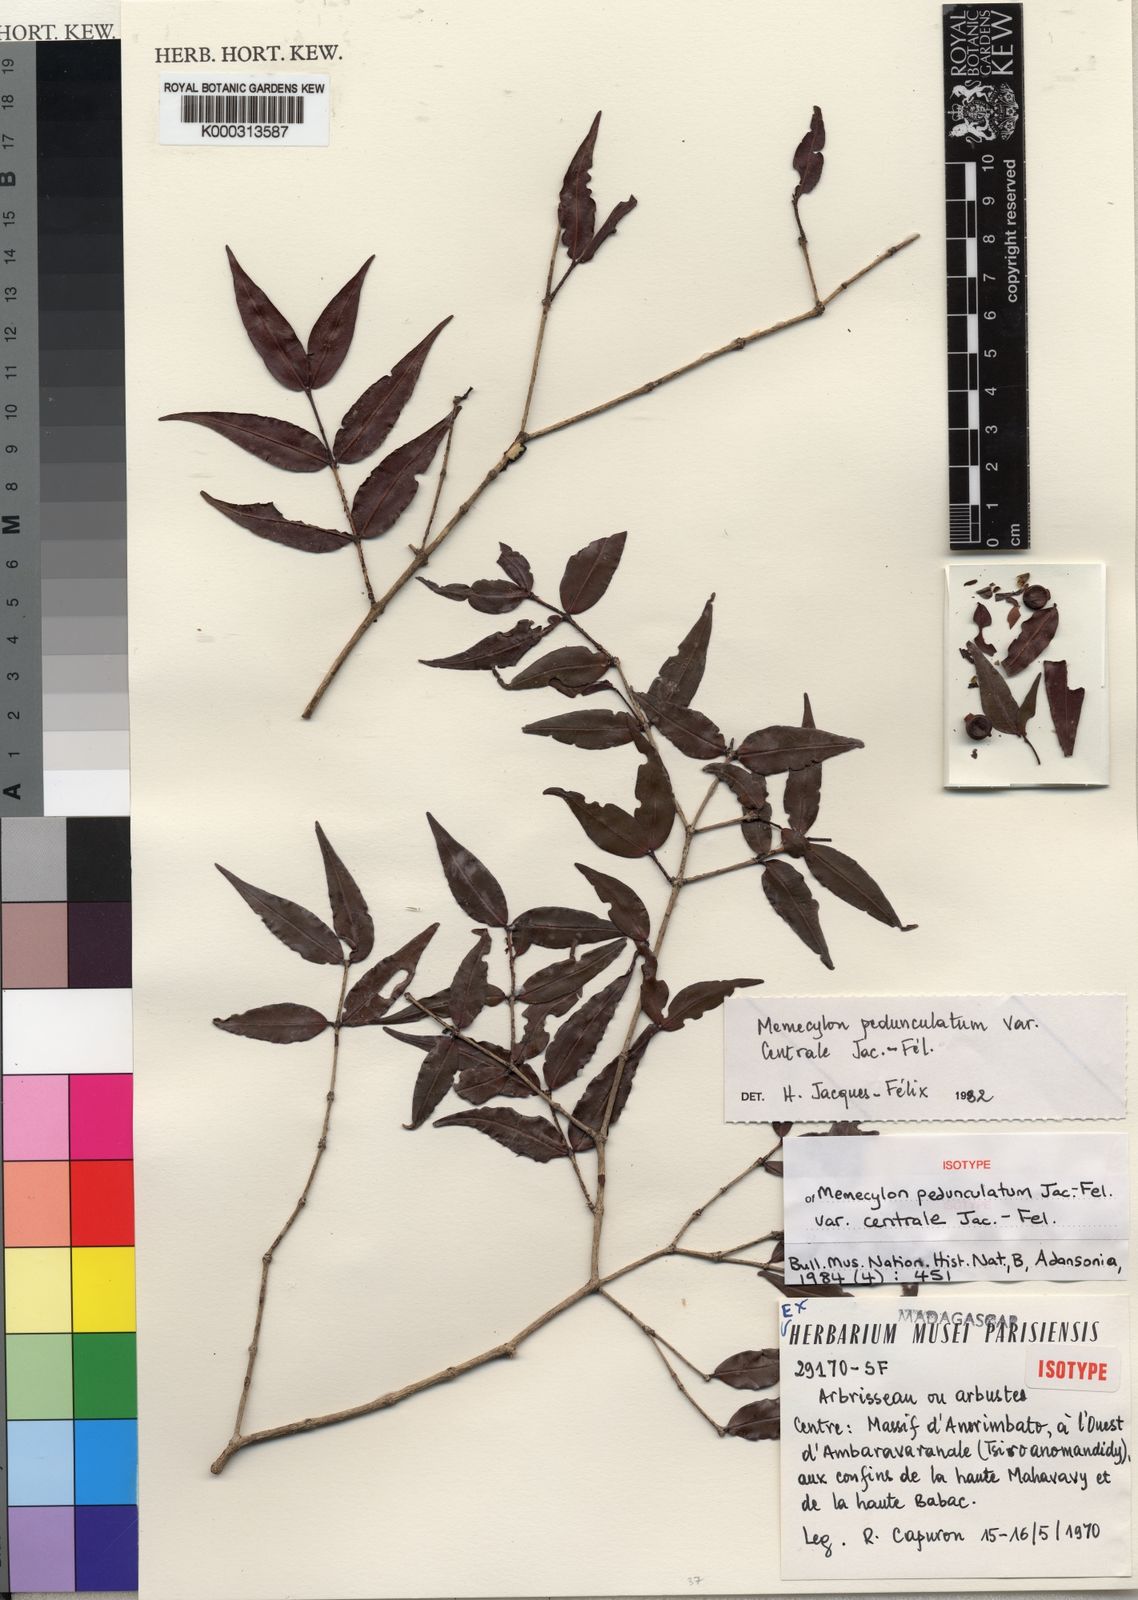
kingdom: Plantae
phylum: Tracheophyta
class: Magnoliopsida
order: Myrtales
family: Melastomataceae
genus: Memecylon
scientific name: Memecylon
